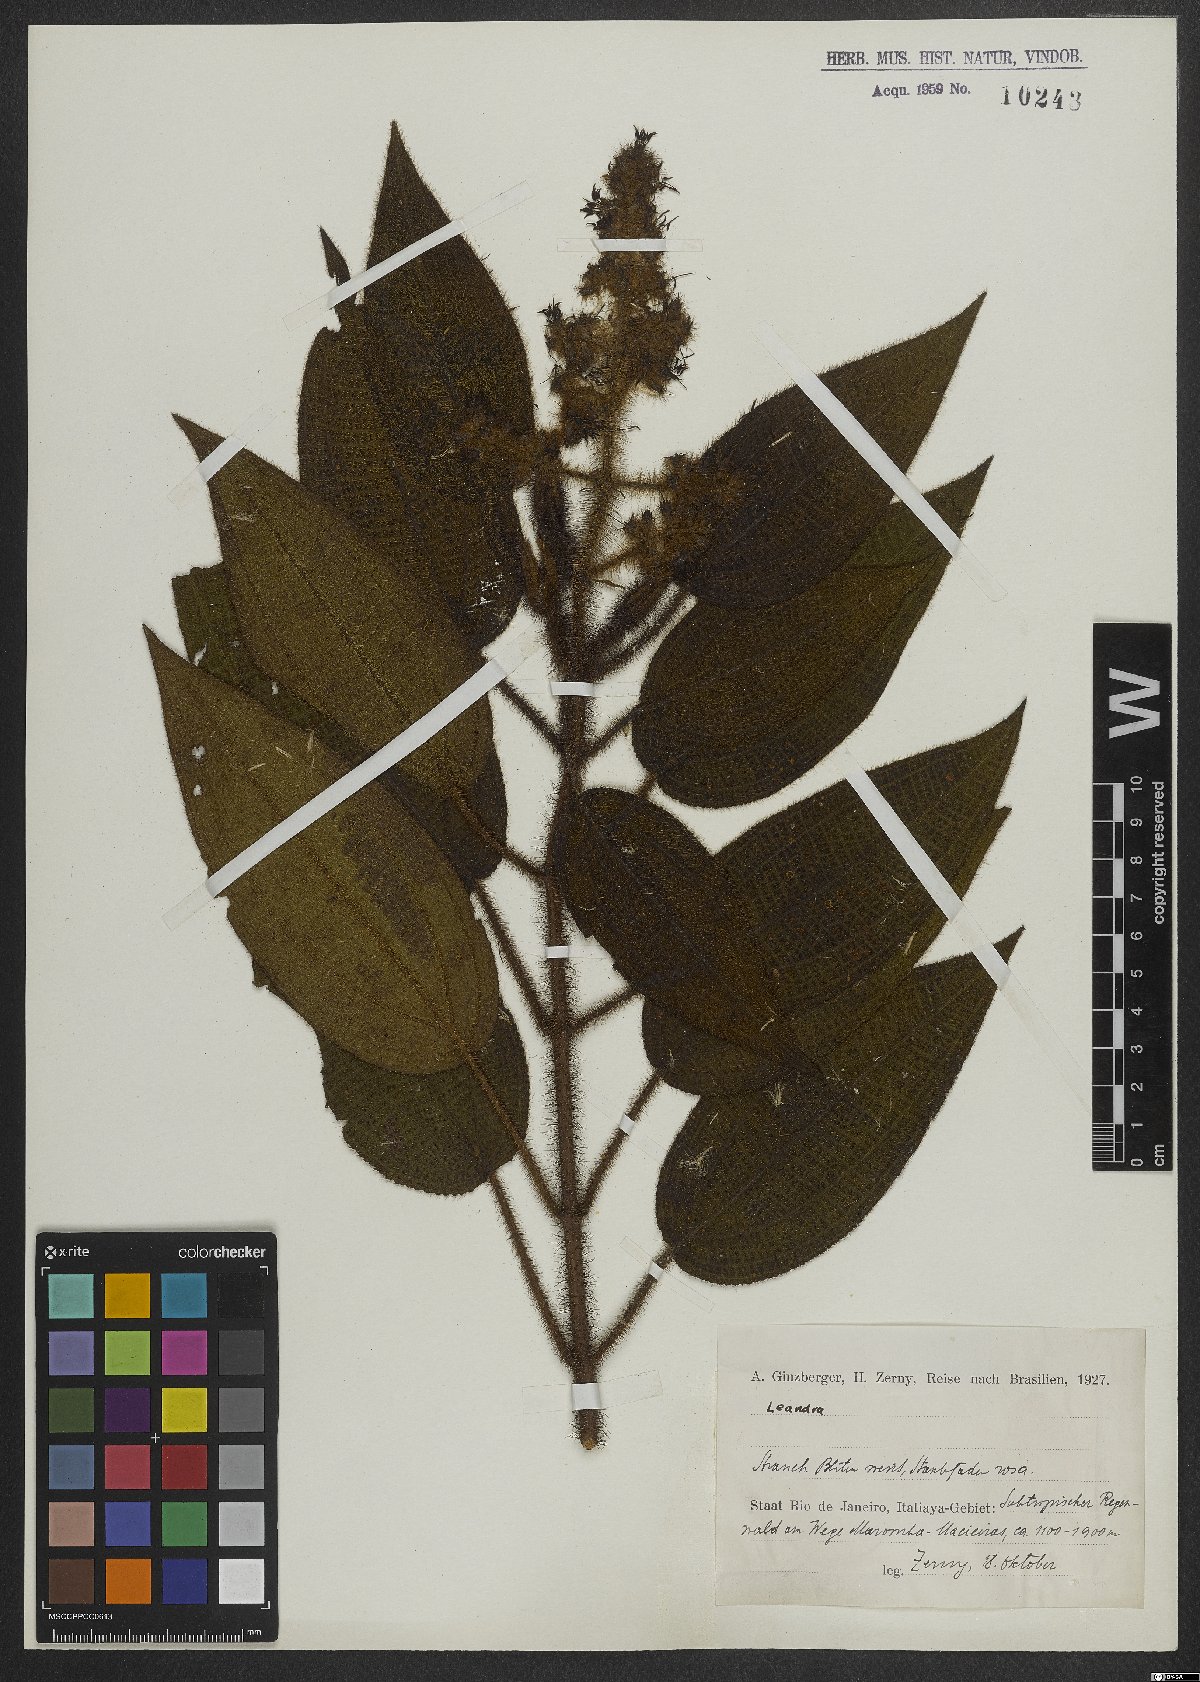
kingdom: Plantae
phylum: Tracheophyta
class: Magnoliopsida
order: Myrtales
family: Melastomataceae
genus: Miconia
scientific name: Miconia
